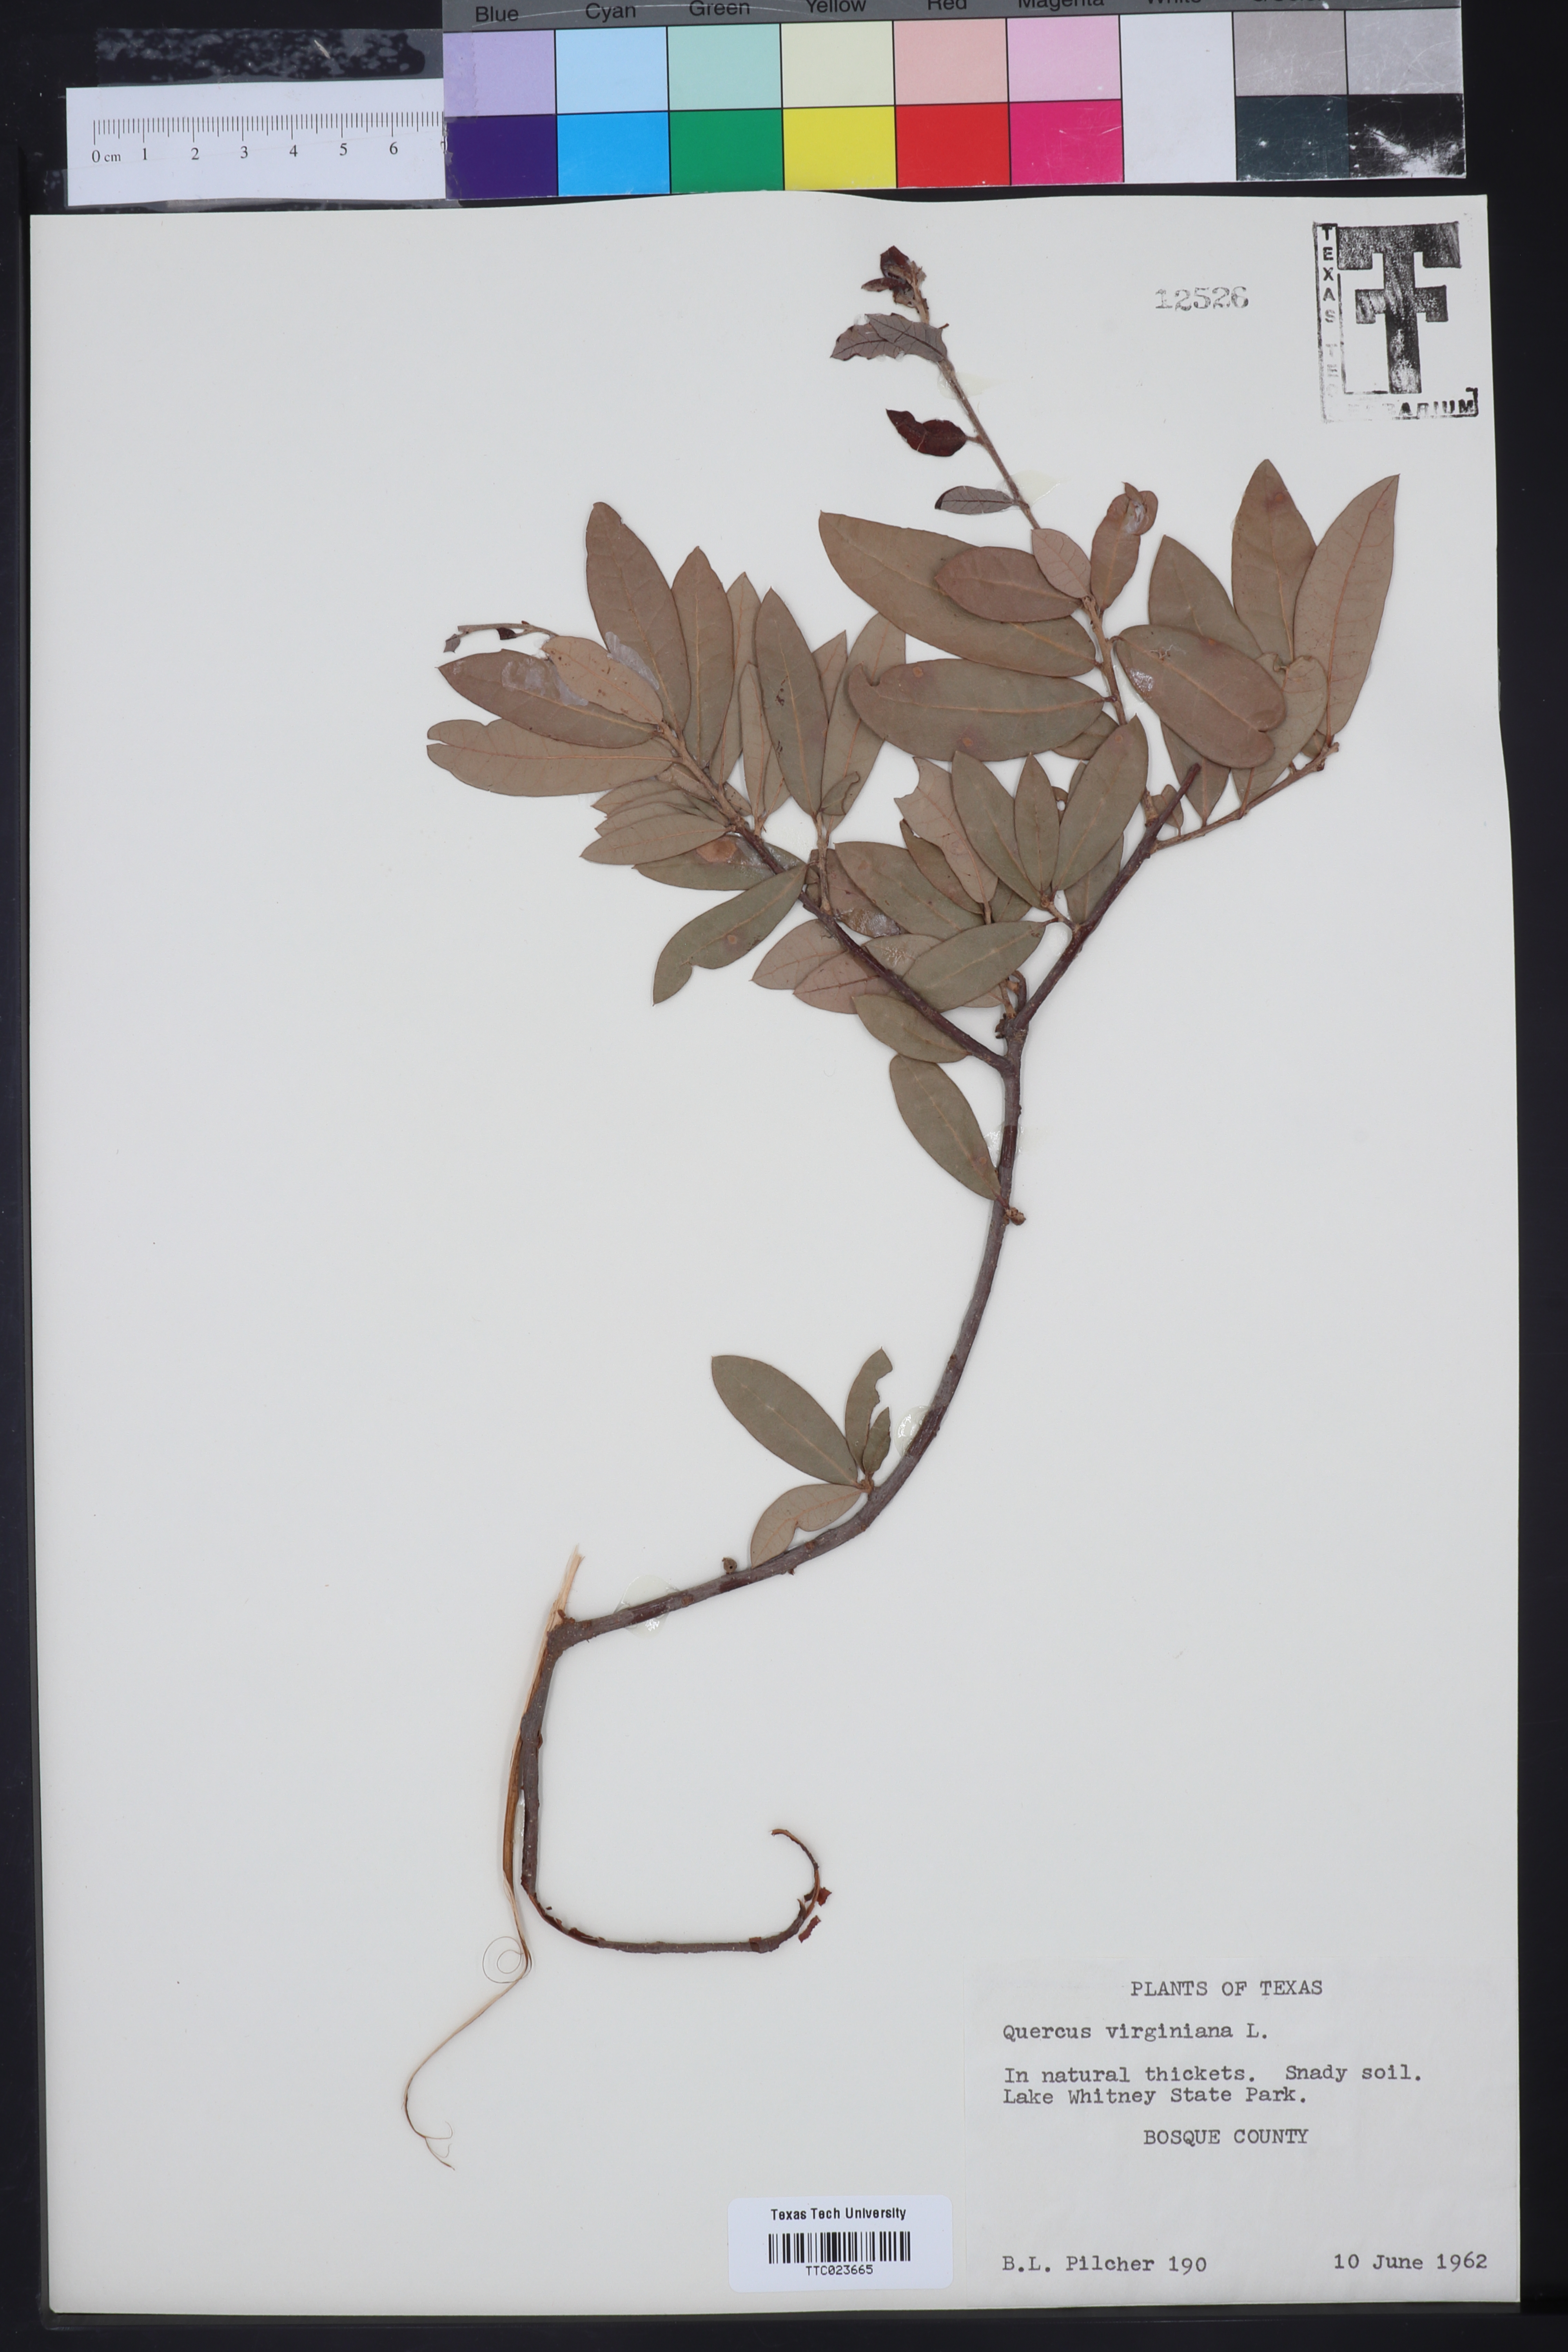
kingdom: Plantae
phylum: Tracheophyta
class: Magnoliopsida
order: Fagales
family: Fagaceae
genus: Quercus
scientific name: Quercus virginiana
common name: Southern live oak
